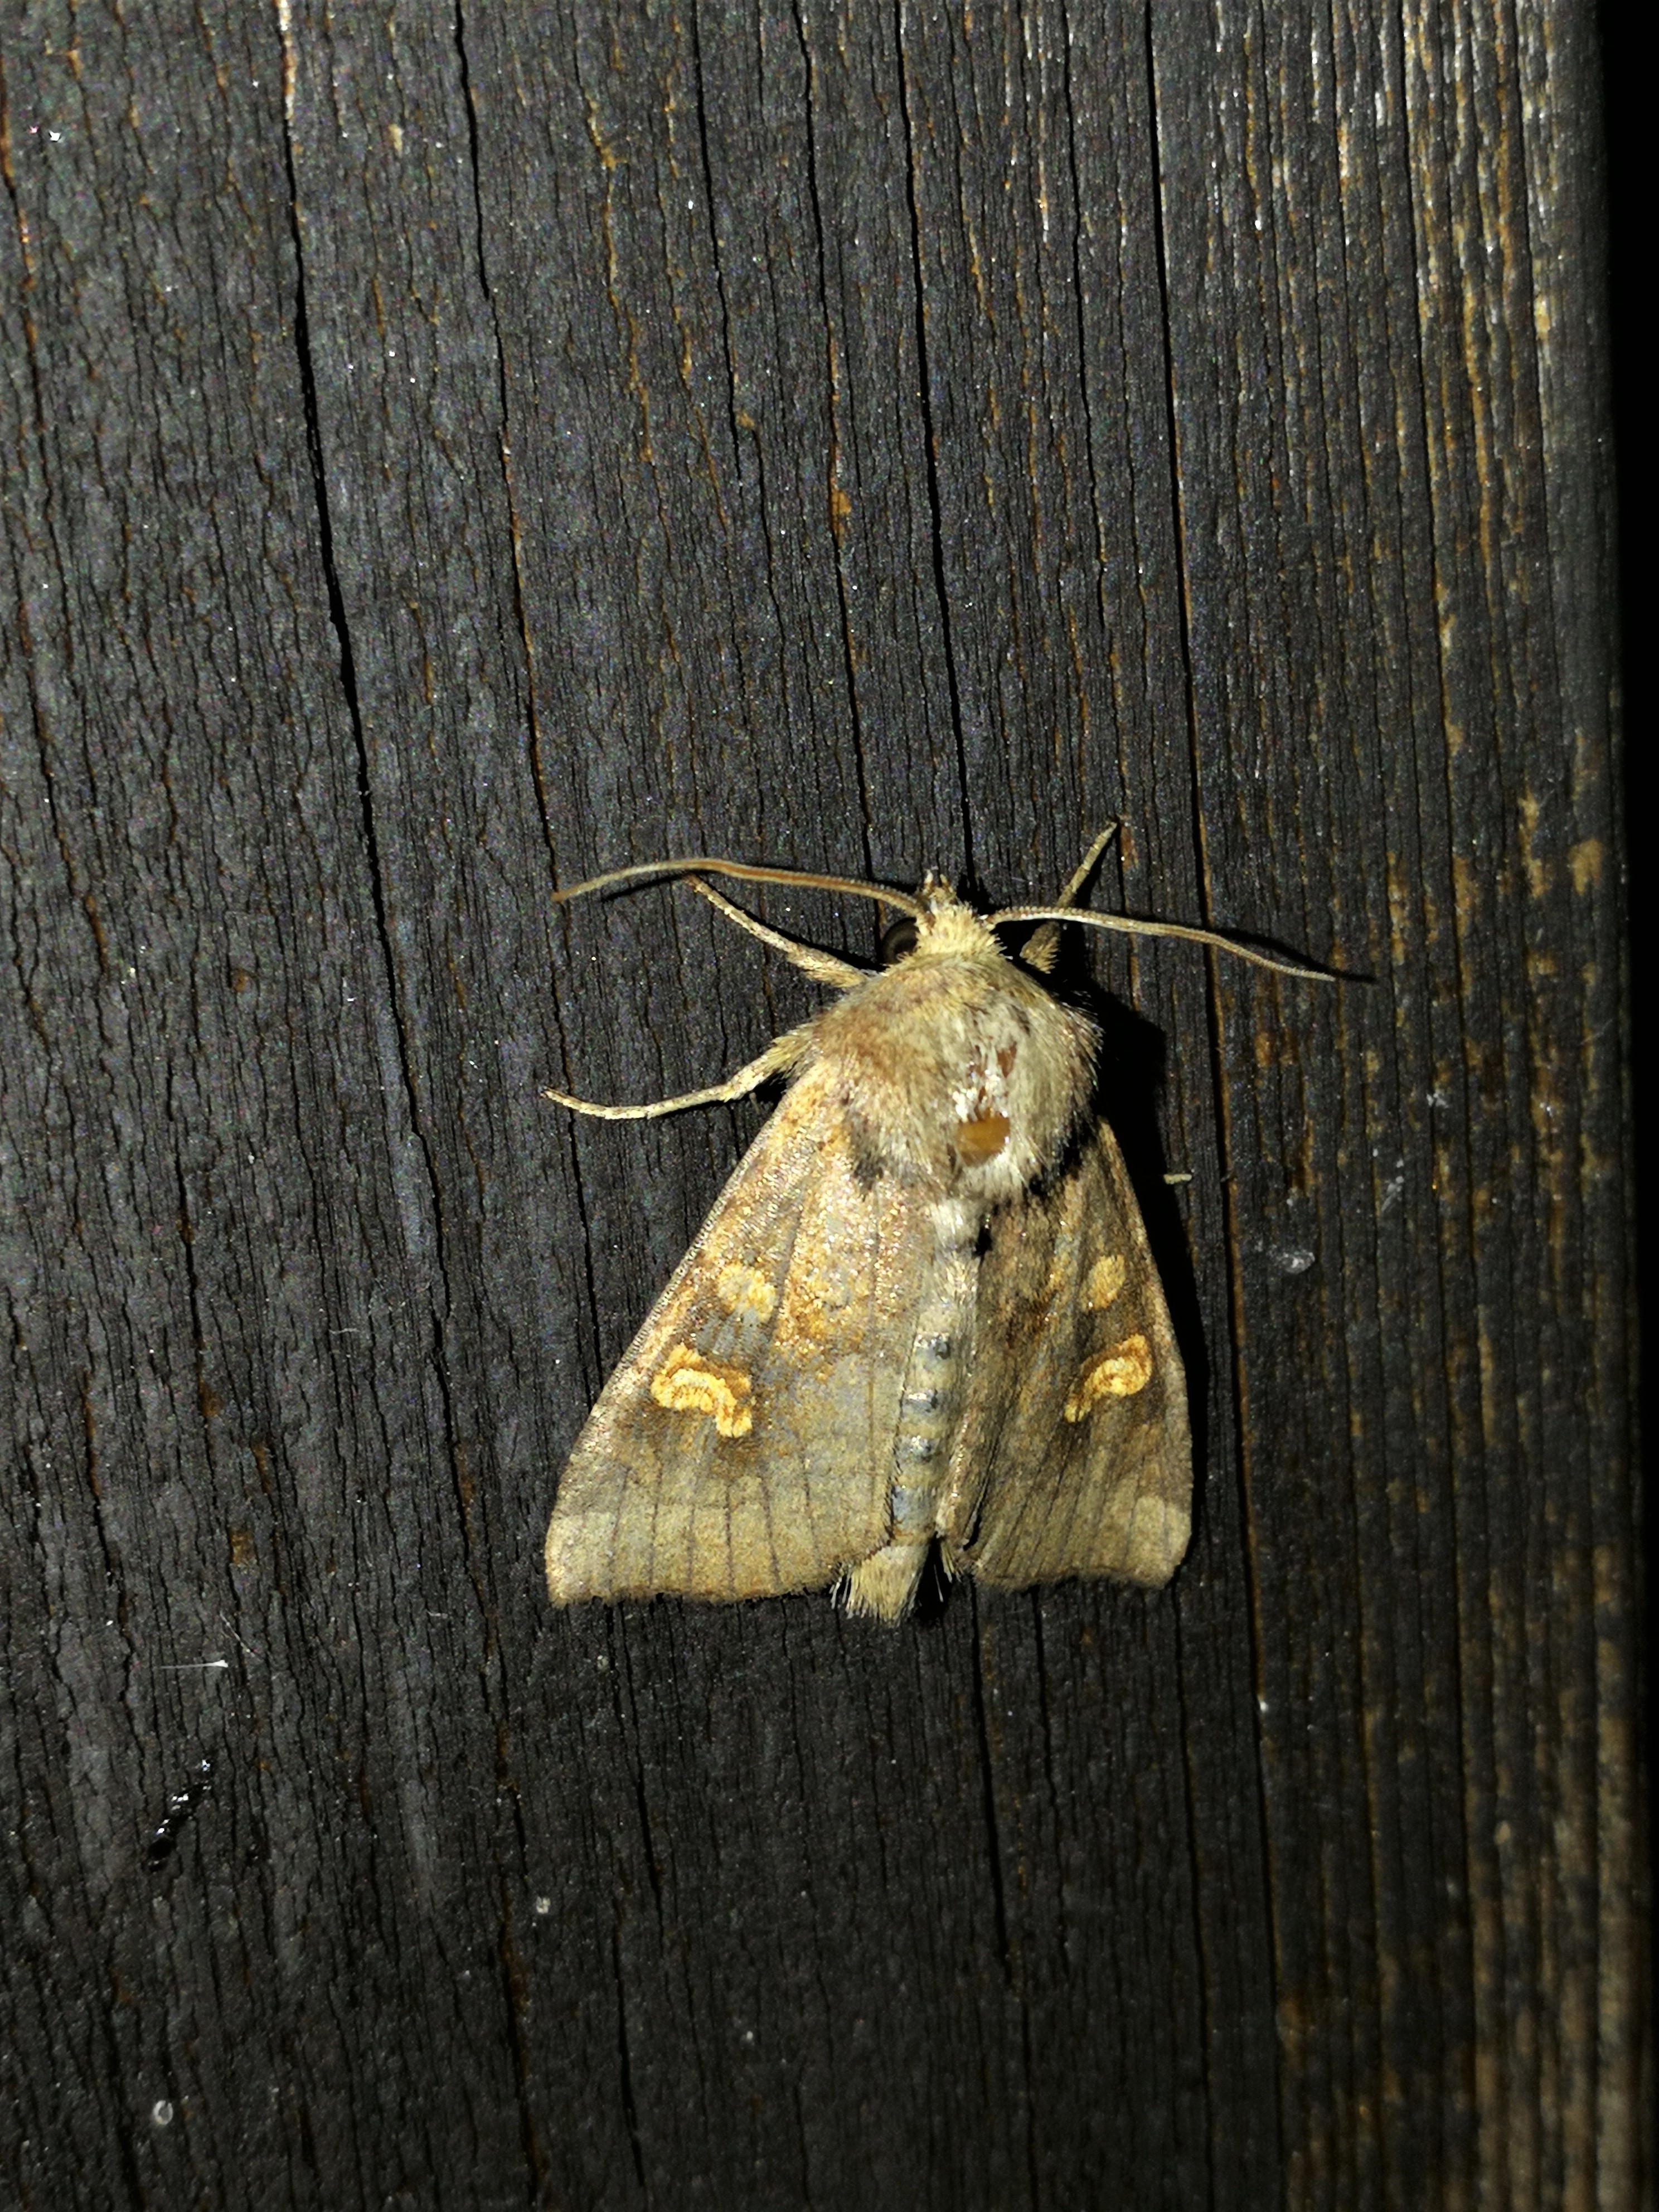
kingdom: Animalia
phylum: Arthropoda
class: Insecta
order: Lepidoptera
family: Noctuidae
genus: Amphipoea
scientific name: Amphipoea fucosa
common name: Saltern ear
